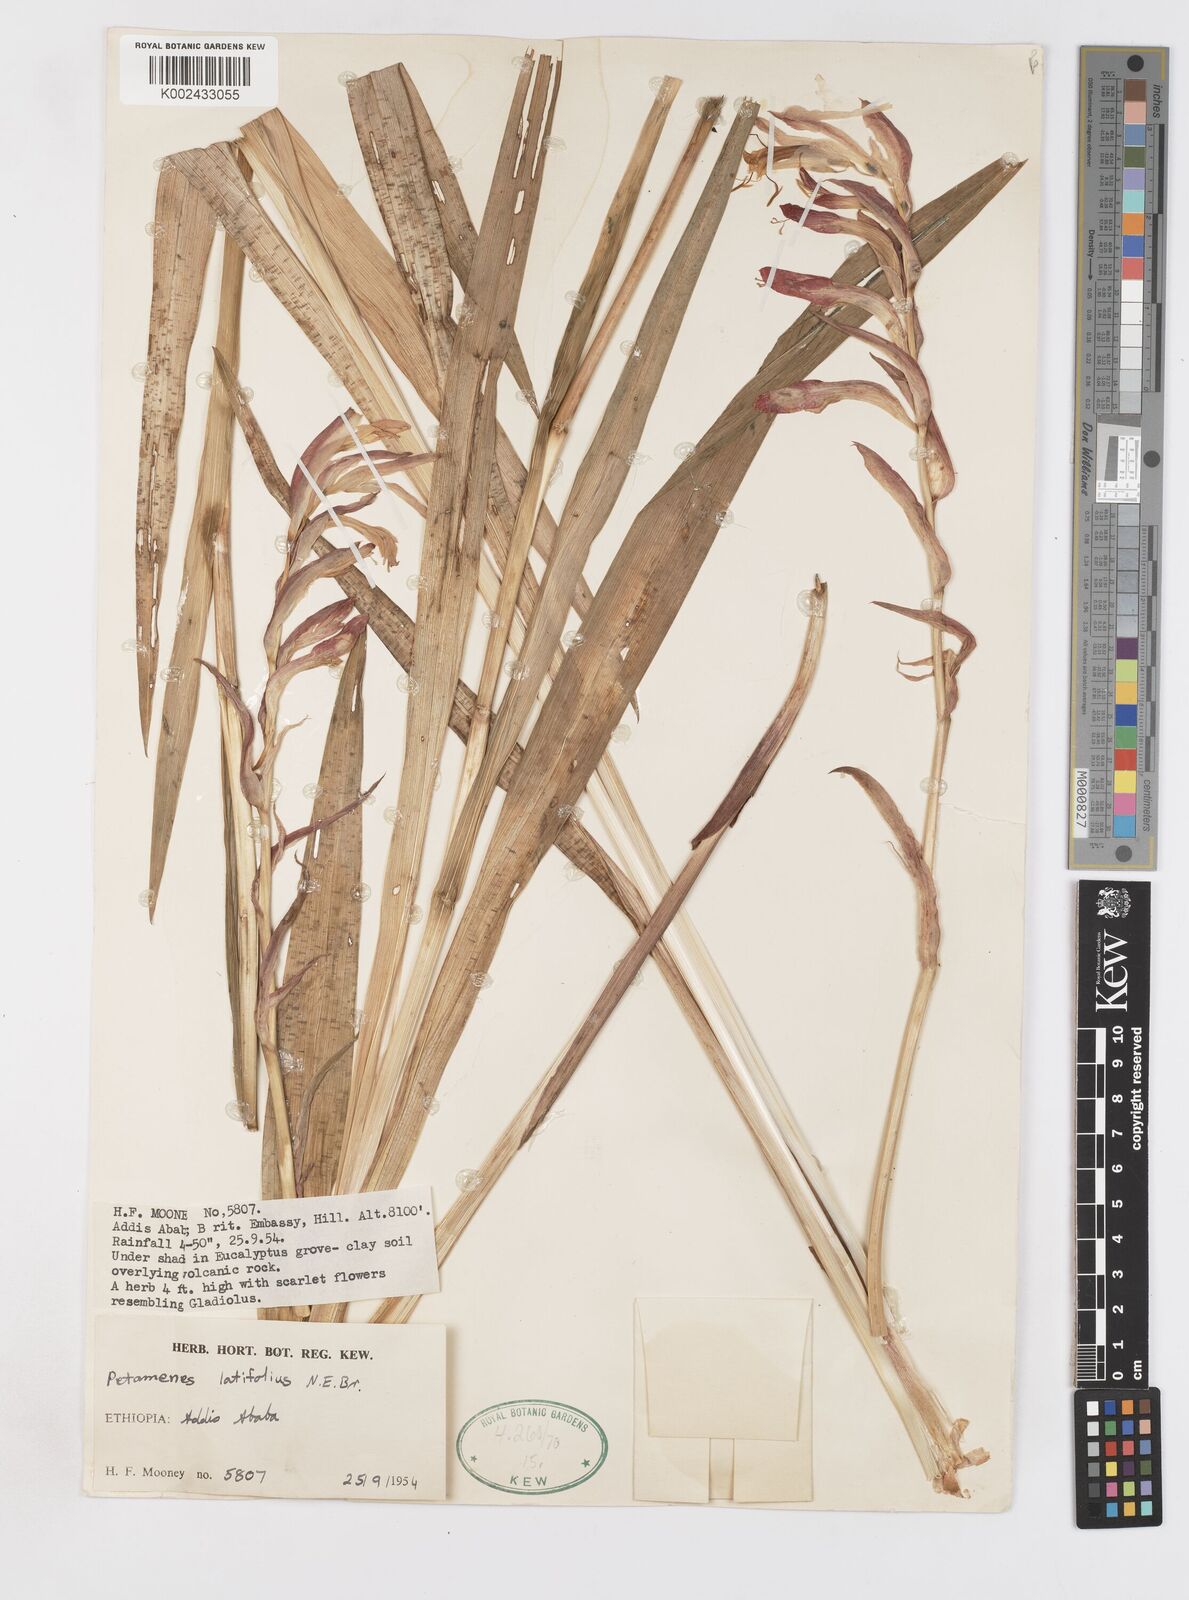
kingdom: Plantae
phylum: Tracheophyta
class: Liliopsida
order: Asparagales
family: Iridaceae
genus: Gladiolus
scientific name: Gladiolus abyssinicus
